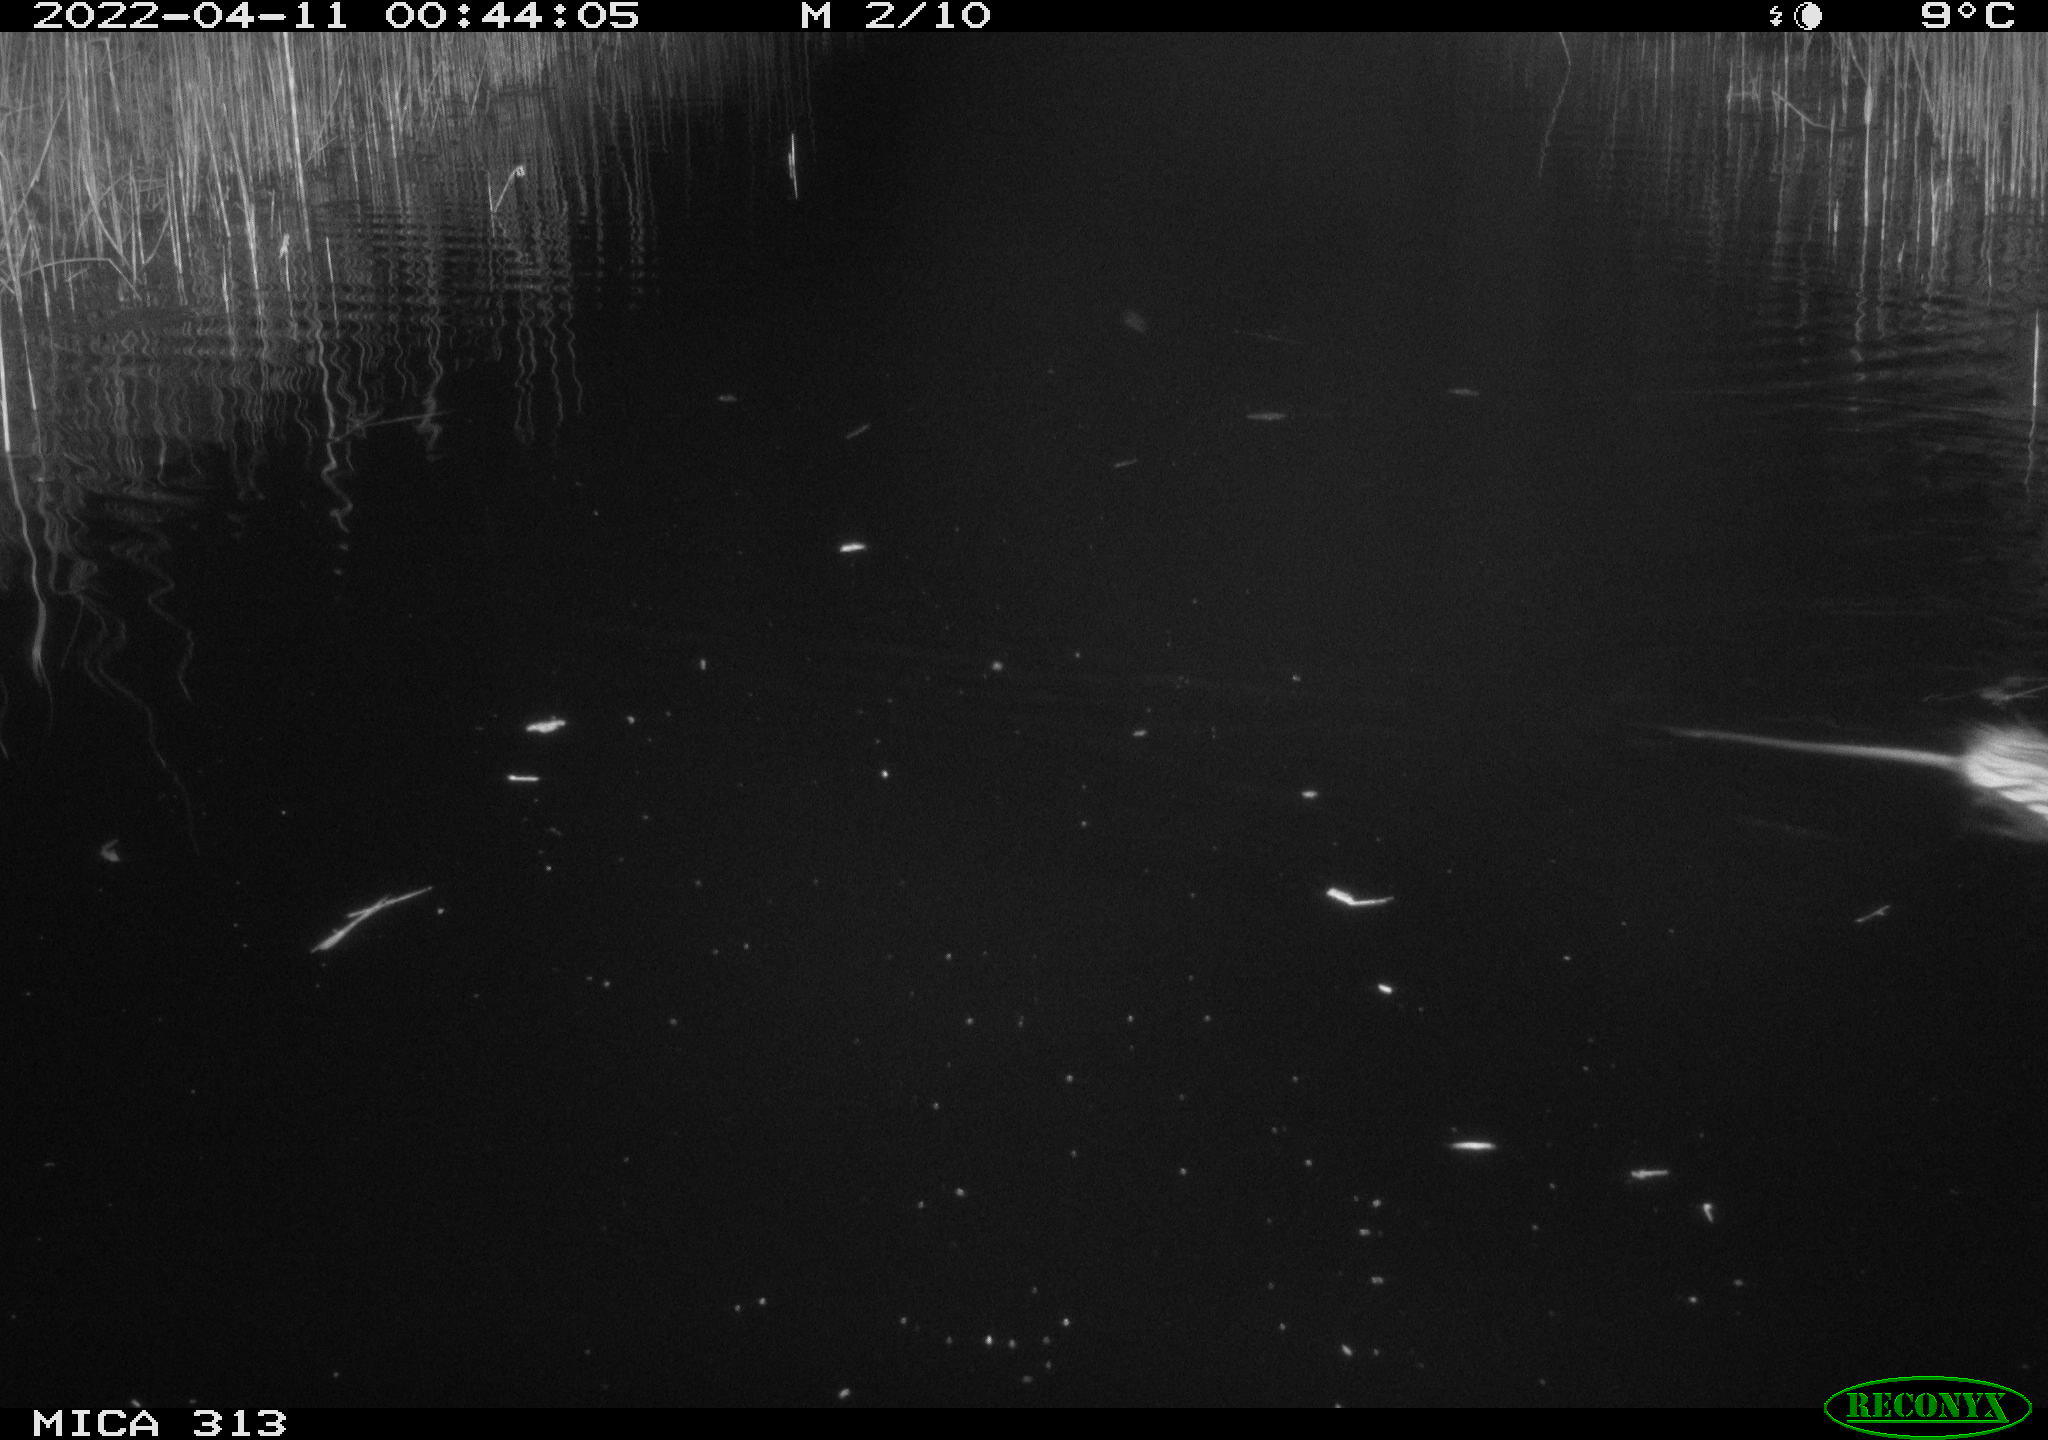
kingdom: Animalia
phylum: Chordata
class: Mammalia
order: Rodentia
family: Cricetidae
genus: Ondatra
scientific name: Ondatra zibethicus
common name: Muskrat
